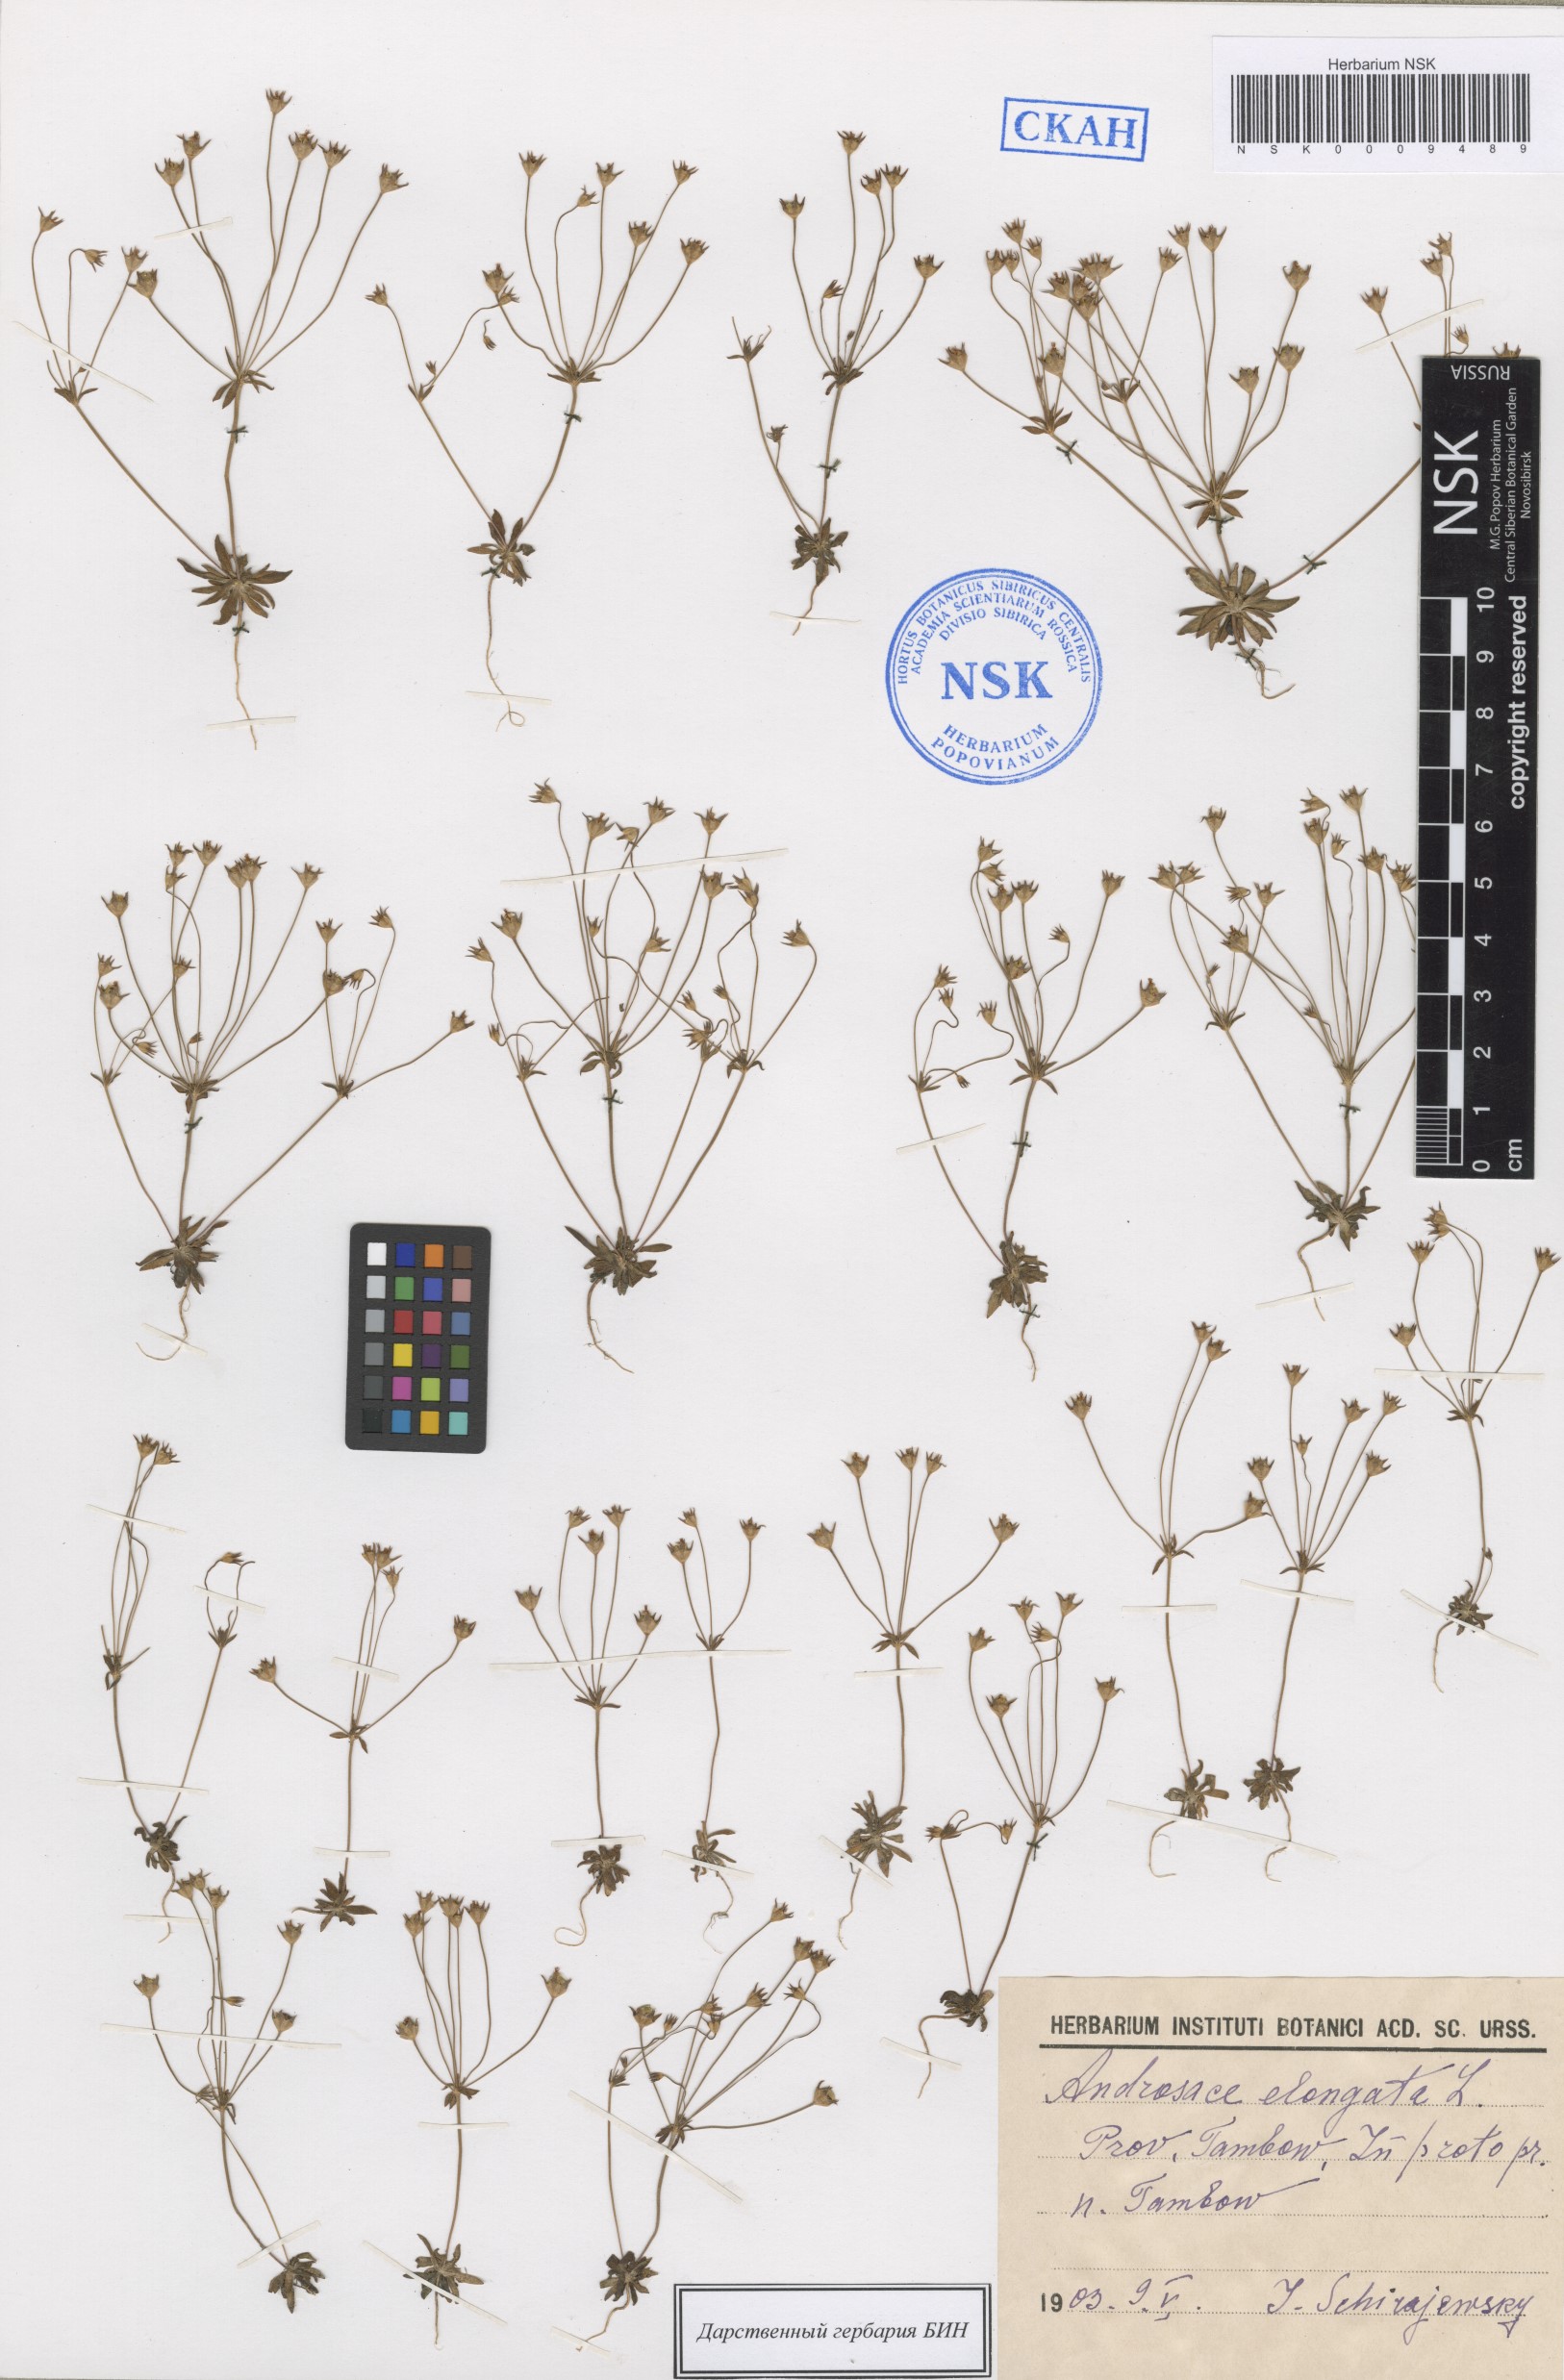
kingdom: Plantae
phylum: Tracheophyta
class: Magnoliopsida
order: Ericales
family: Primulaceae
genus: Androsace
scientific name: Androsace elongata
